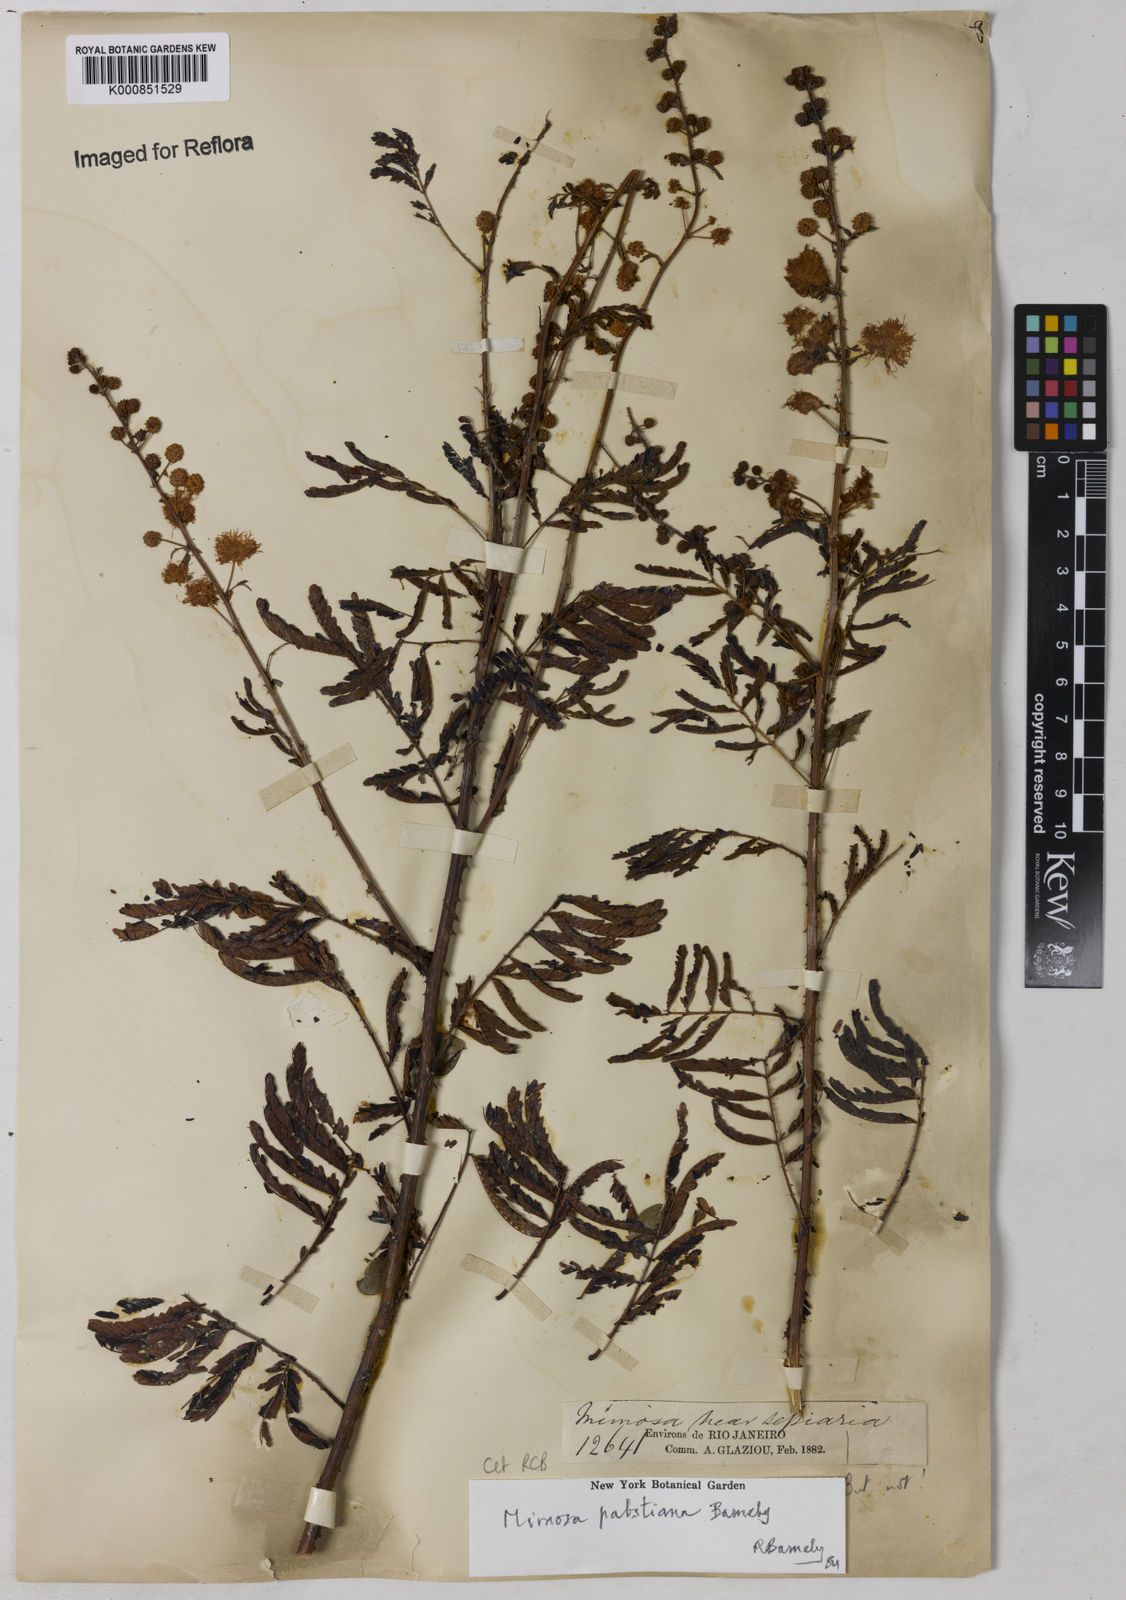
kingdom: Plantae
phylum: Tracheophyta
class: Magnoliopsida
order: Fabales
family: Fabaceae
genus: Mimosa
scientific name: Mimosa pabstiana
